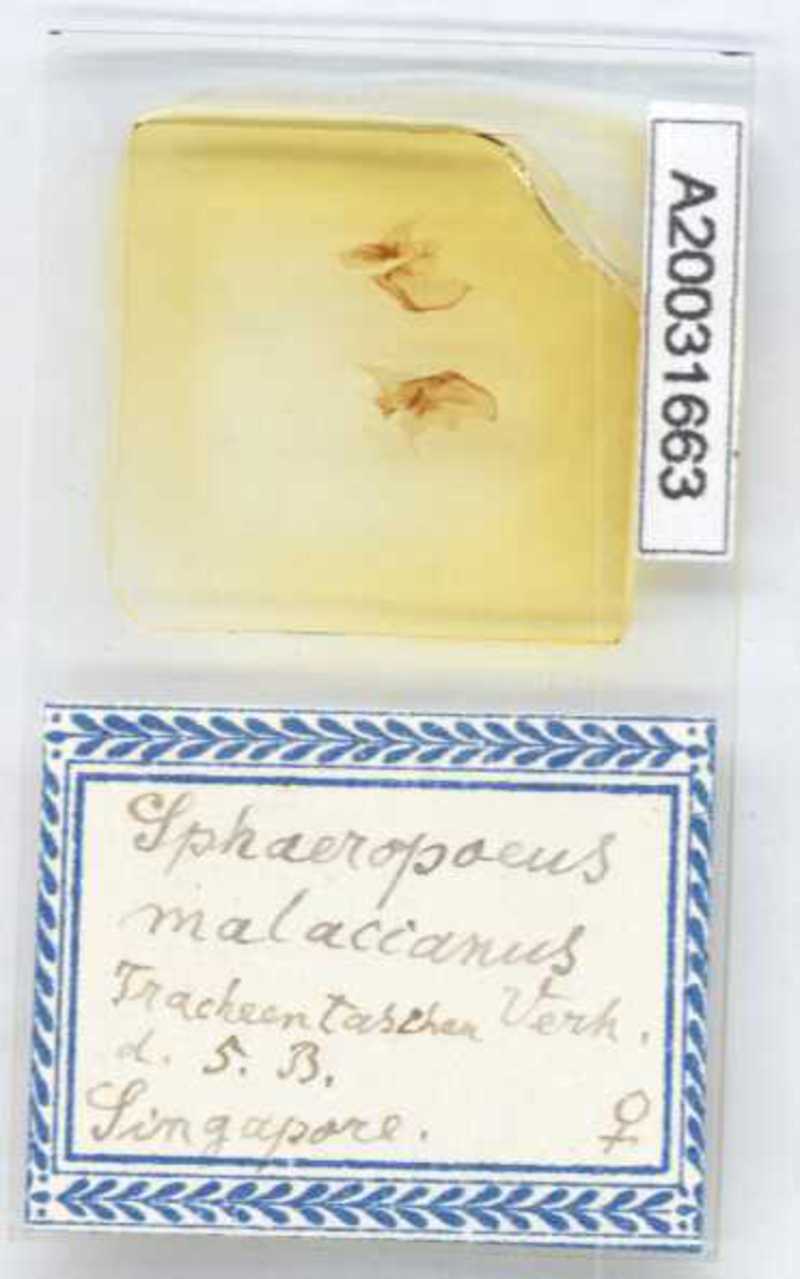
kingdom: Animalia
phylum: Arthropoda
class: Diplopoda
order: Sphaerotheriida
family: Zephroniidae
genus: Sphaeropoeus
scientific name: Sphaeropoeus malaccanus
